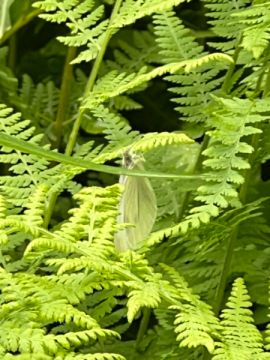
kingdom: Animalia
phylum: Arthropoda
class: Insecta
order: Lepidoptera
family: Pieridae
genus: Pieris
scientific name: Pieris rapae
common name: Cabbage White
